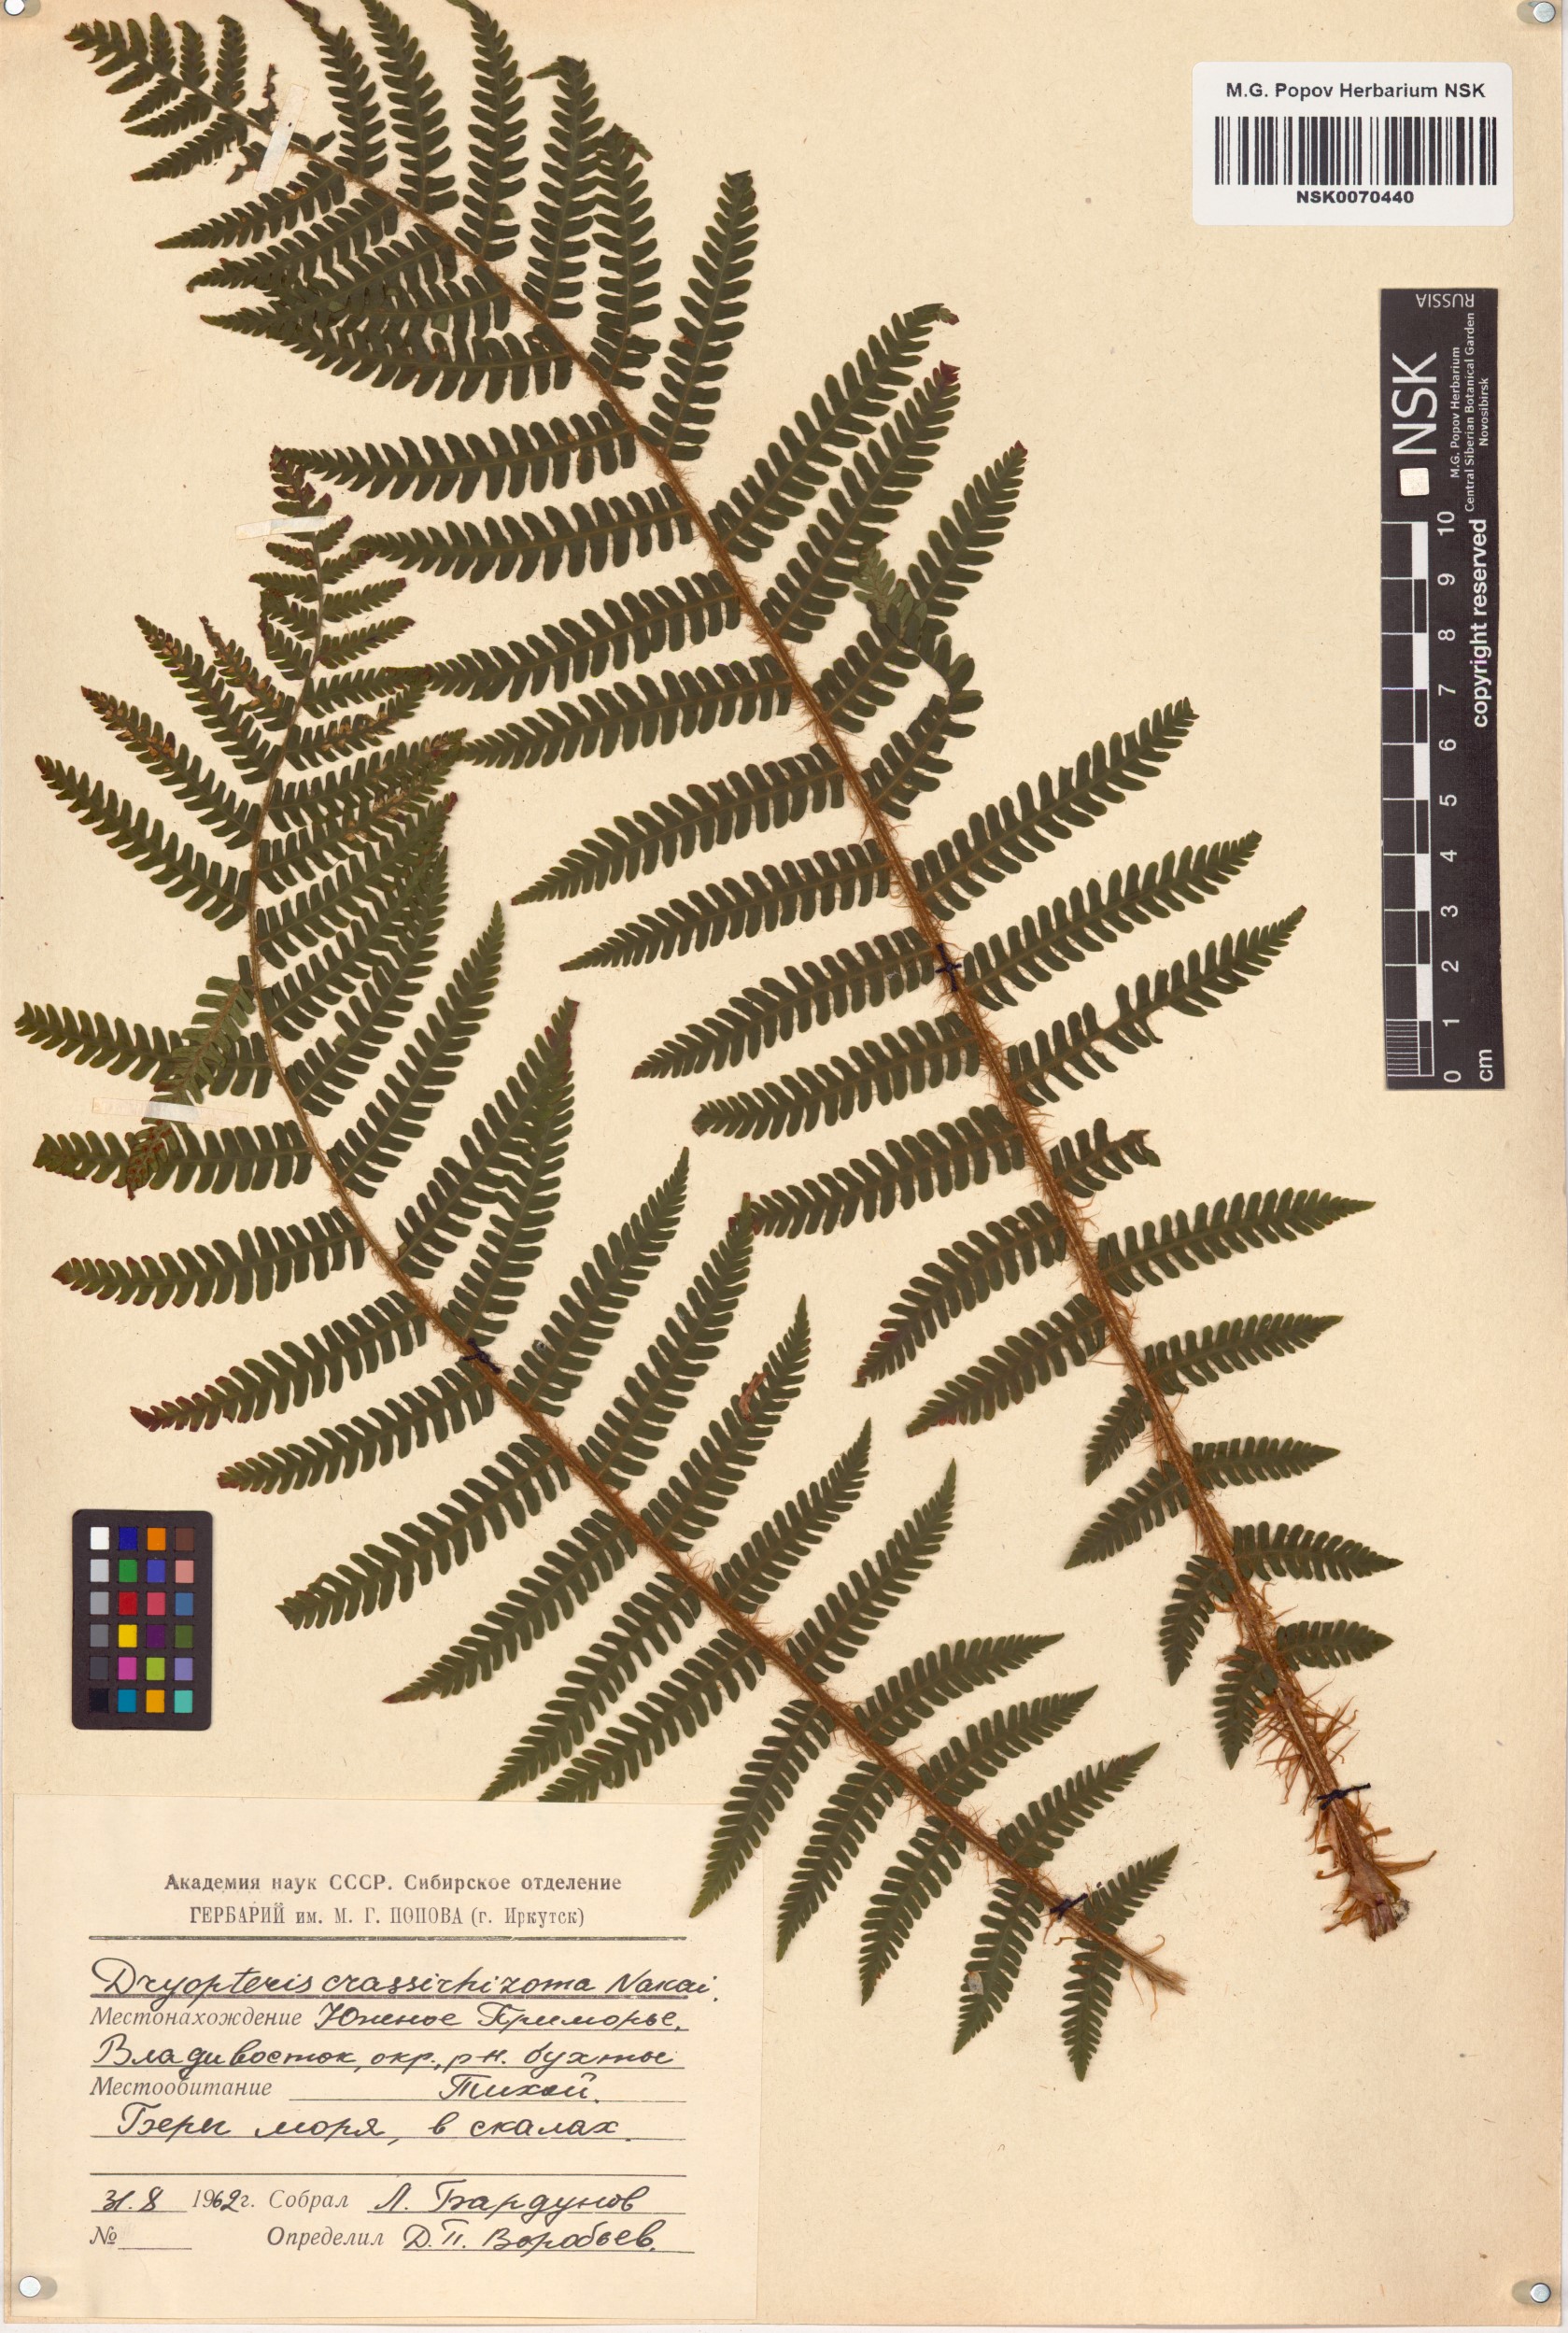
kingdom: Plantae
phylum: Tracheophyta
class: Polypodiopsida
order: Polypodiales
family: Dryopteridaceae
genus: Dryopteris
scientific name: Dryopteris crassirhizoma
